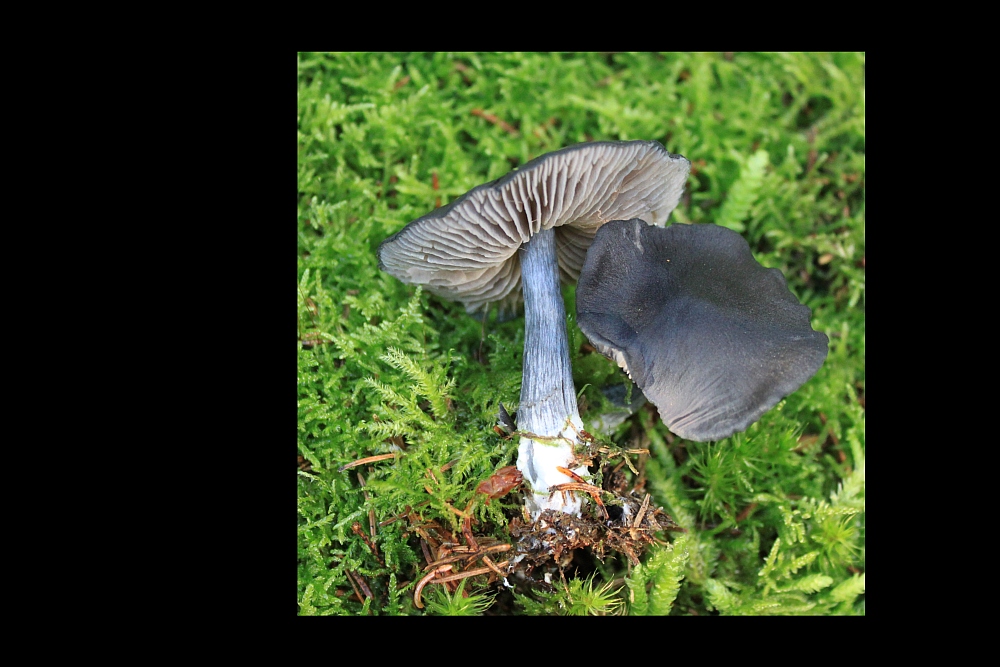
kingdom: Fungi
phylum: Basidiomycota
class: Agaricomycetes
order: Agaricales
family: Entolomataceae
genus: Entocybe
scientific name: Entocybe nitida
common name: stålblå rødblad
